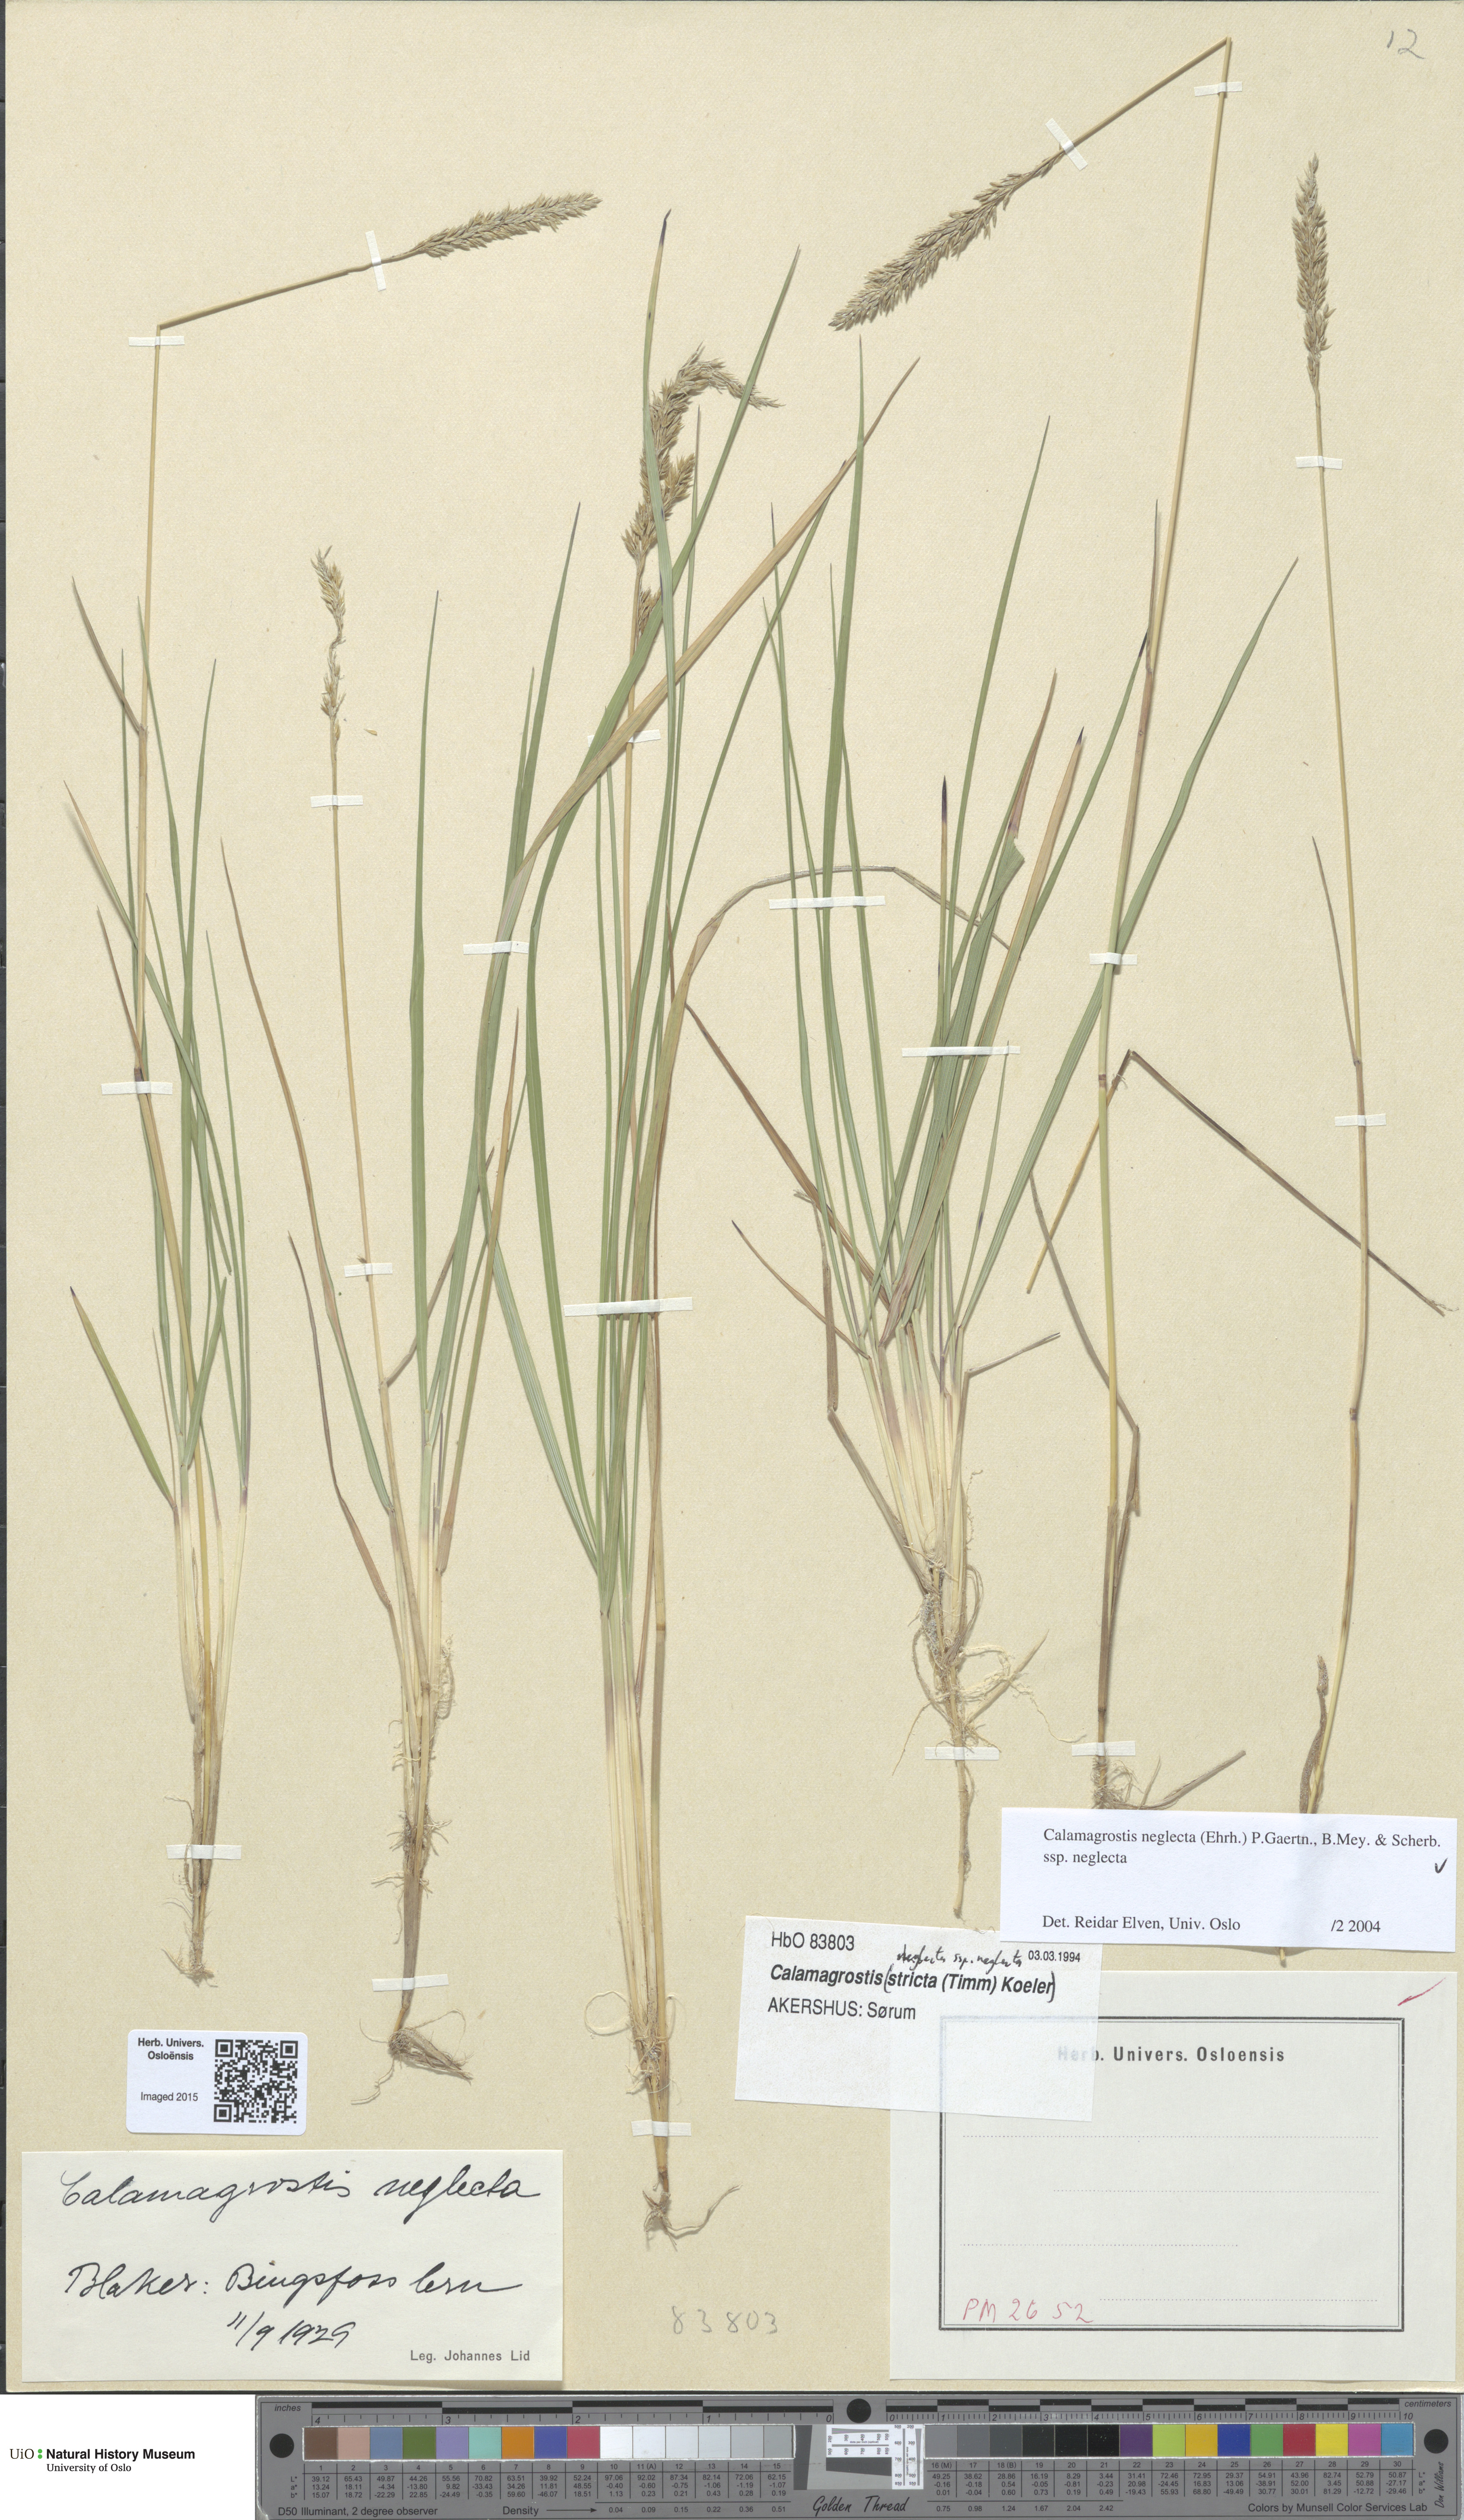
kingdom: Plantae
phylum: Tracheophyta
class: Liliopsida
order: Poales
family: Poaceae
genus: Achnatherum
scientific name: Achnatherum calamagrostis
